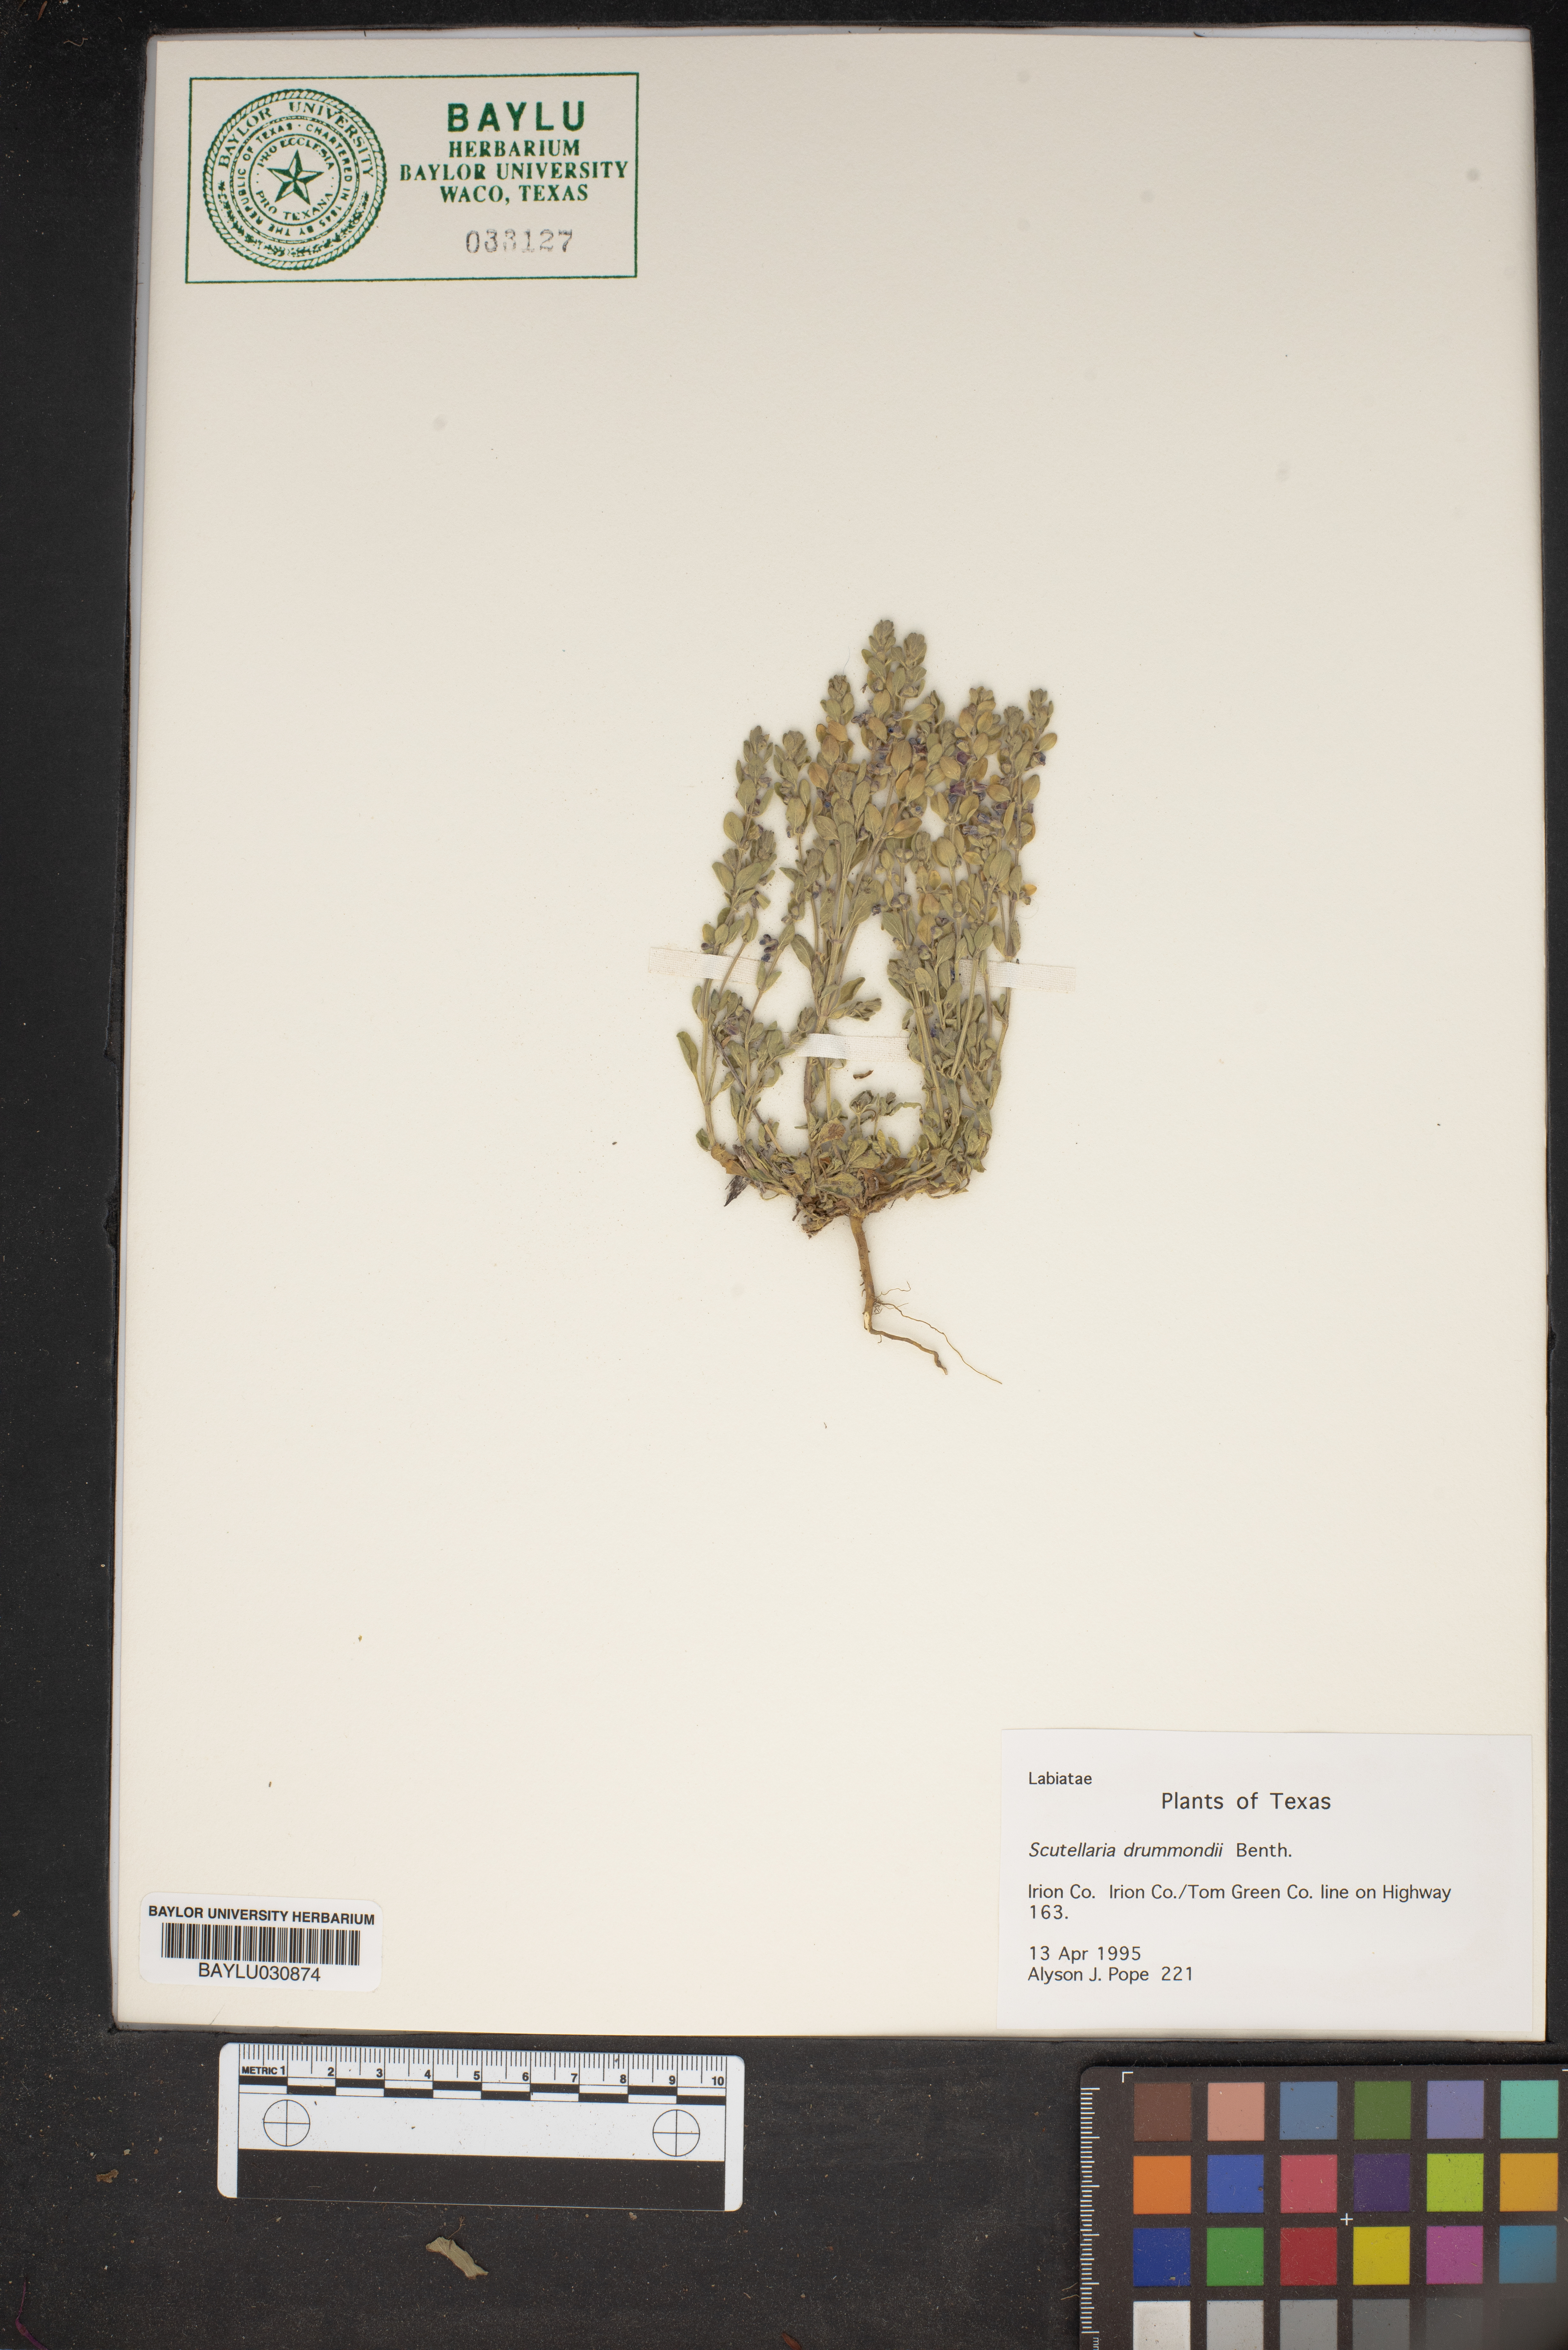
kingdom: Plantae
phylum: Tracheophyta
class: Magnoliopsida
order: Lamiales
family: Lamiaceae
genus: Scutellaria
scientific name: Scutellaria drummondii
